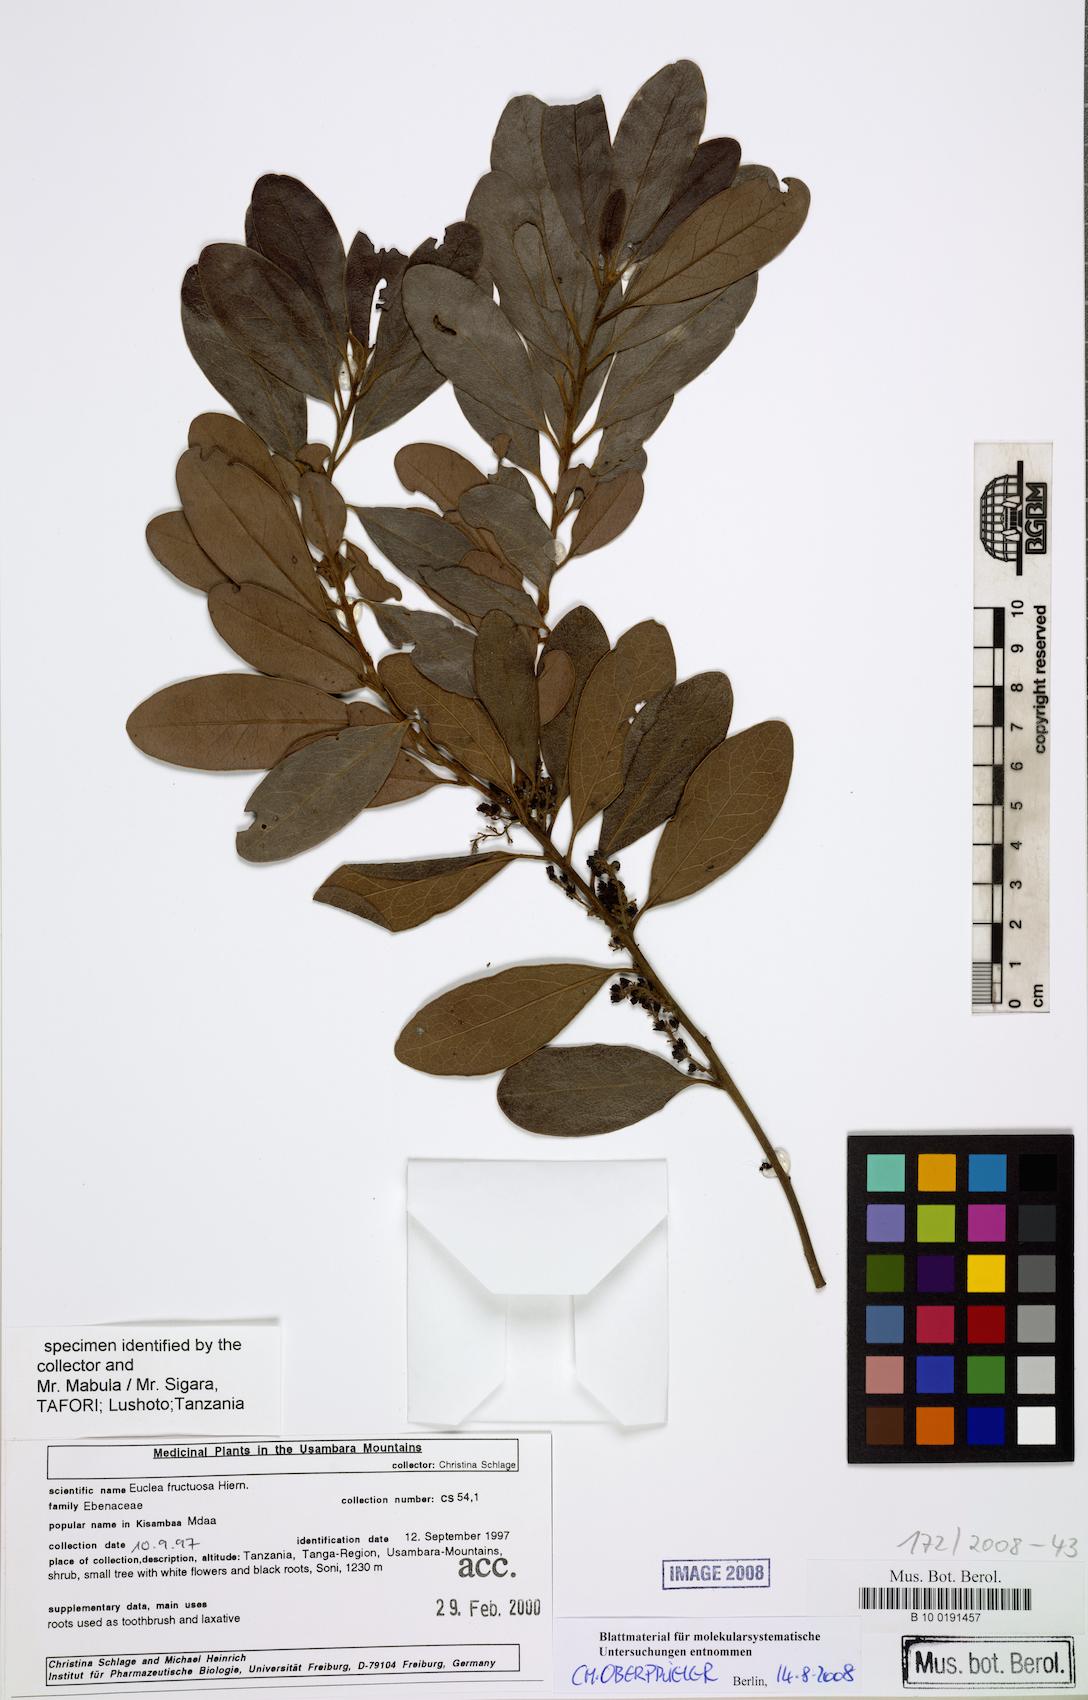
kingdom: Plantae
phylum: Tracheophyta
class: Magnoliopsida
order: Ericales
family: Ebenaceae
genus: Euclea
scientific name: Euclea natalensis
